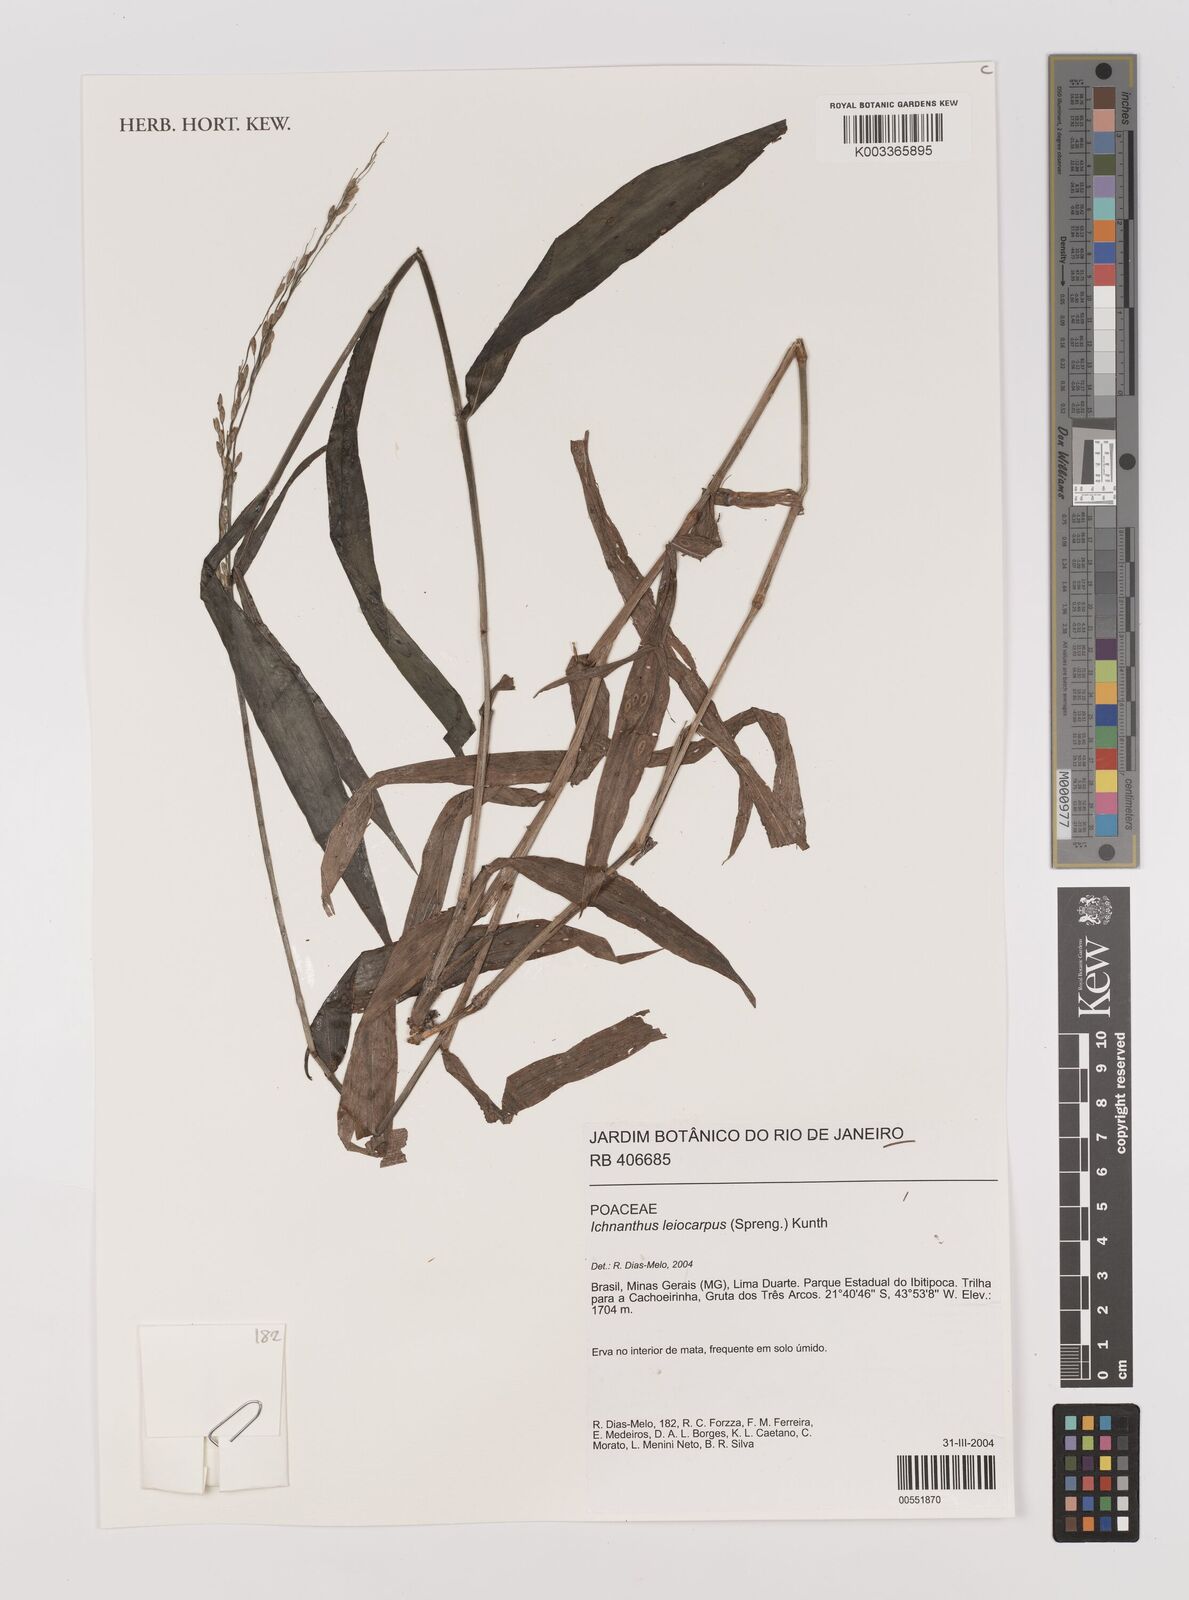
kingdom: Plantae
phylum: Tracheophyta
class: Liliopsida
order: Poales
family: Poaceae
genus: Ichnanthus
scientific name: Ichnanthus leiocarpus
